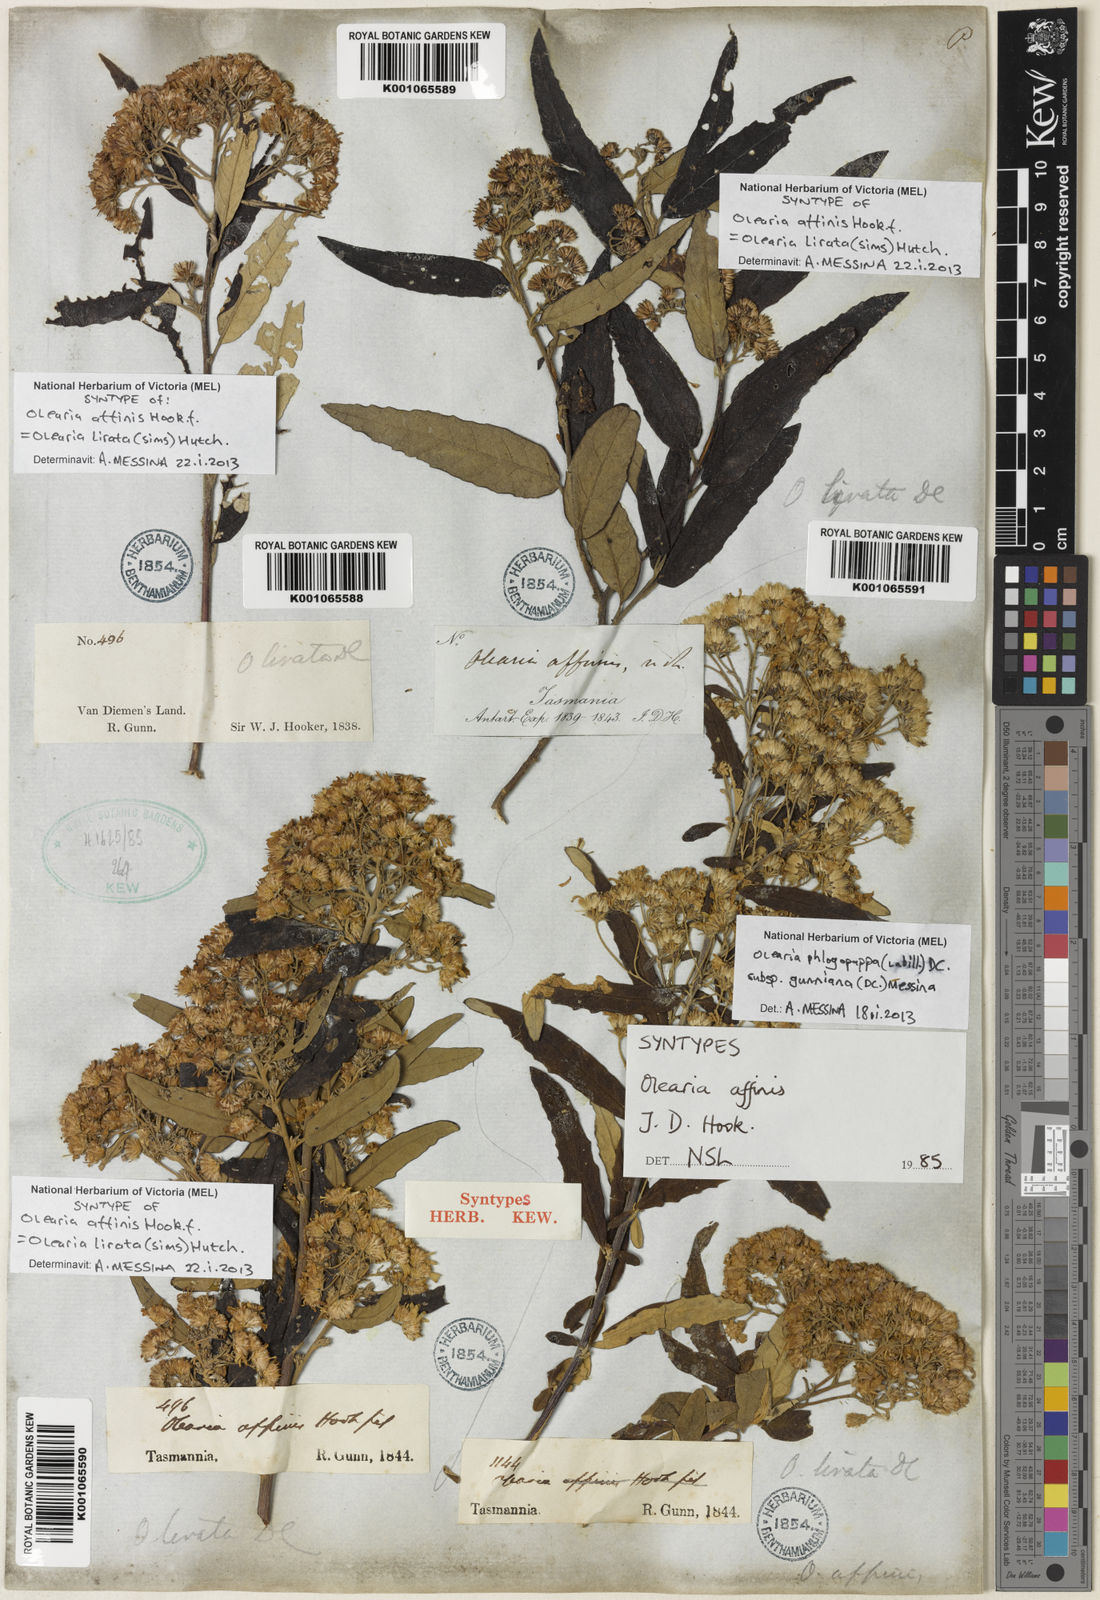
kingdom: Plantae
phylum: Tracheophyta
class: Magnoliopsida
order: Asterales
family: Asteraceae
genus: Olearia
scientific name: Olearia lirata
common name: Dusty daisybush
